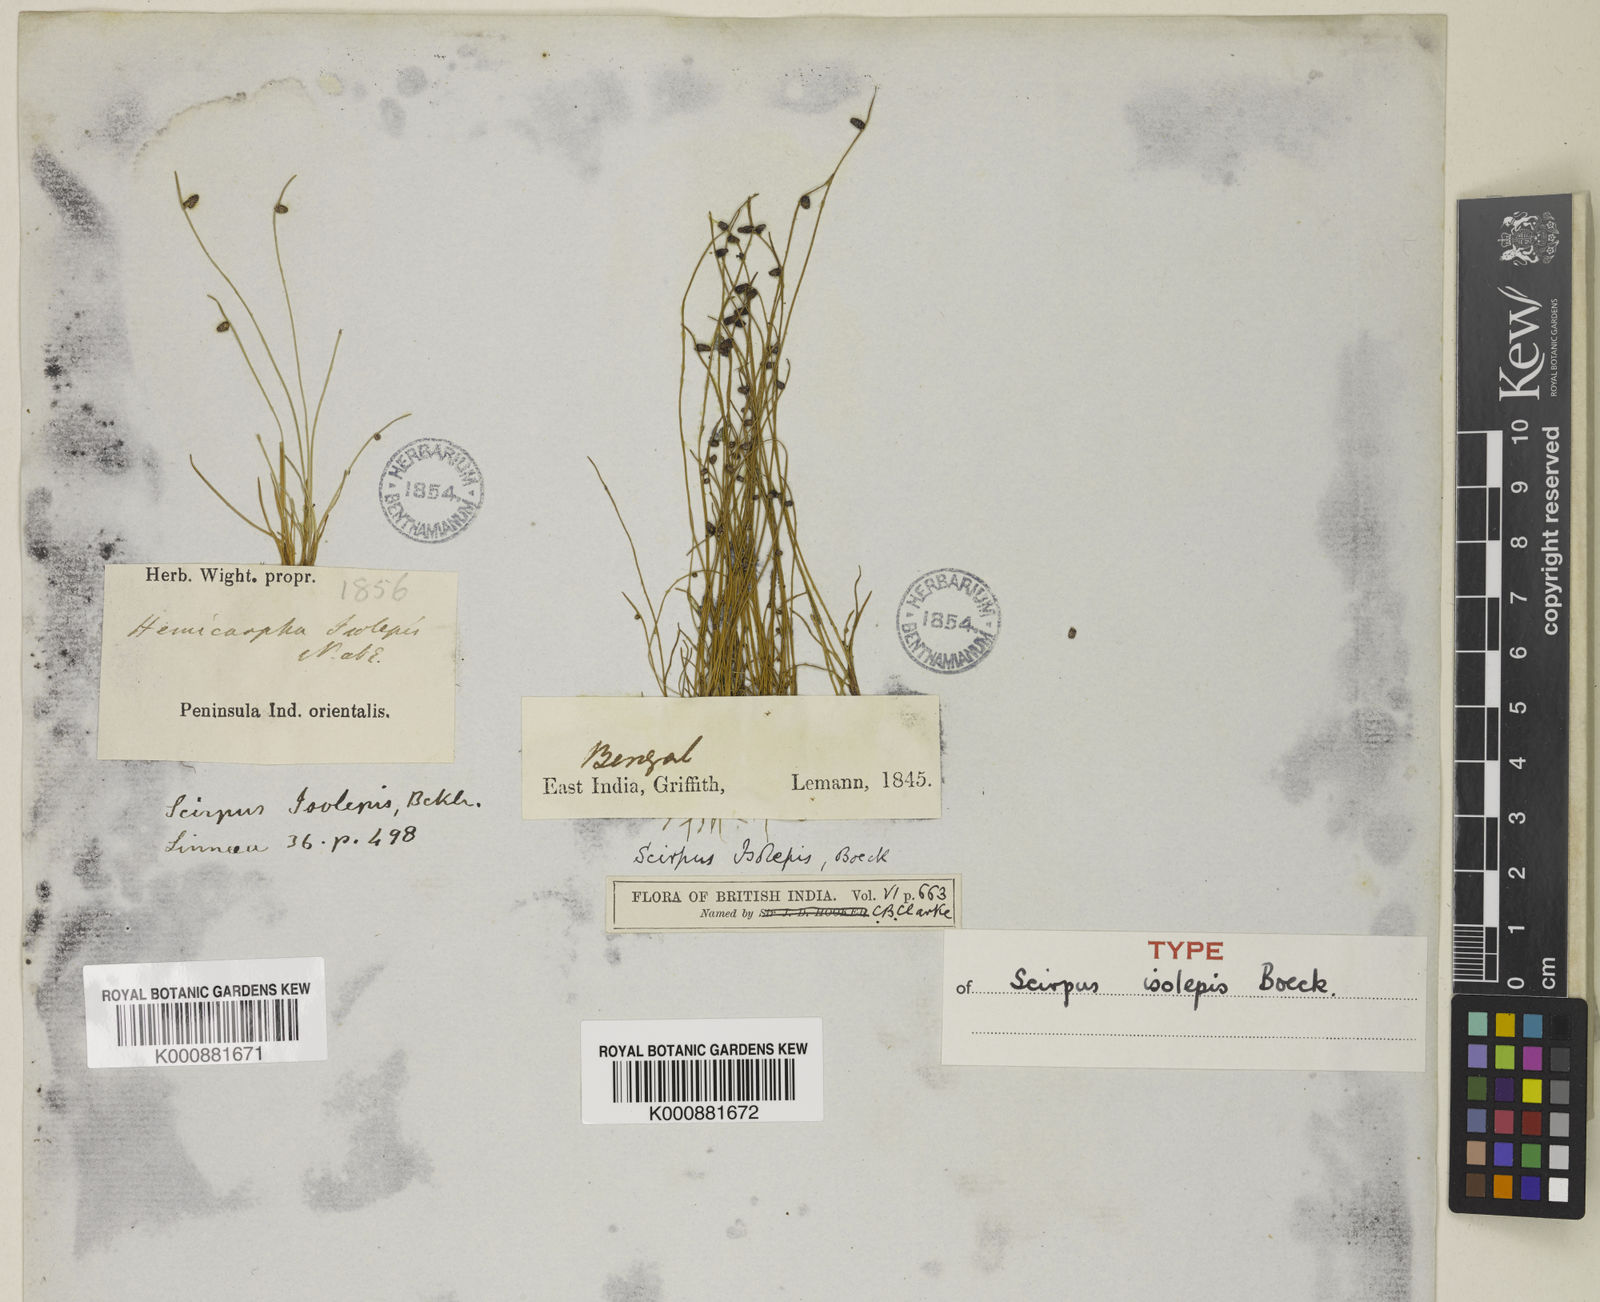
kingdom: Plantae
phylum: Tracheophyta
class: Liliopsida
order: Poales
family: Cyperaceae
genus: Cyperus
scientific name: Cyperus
